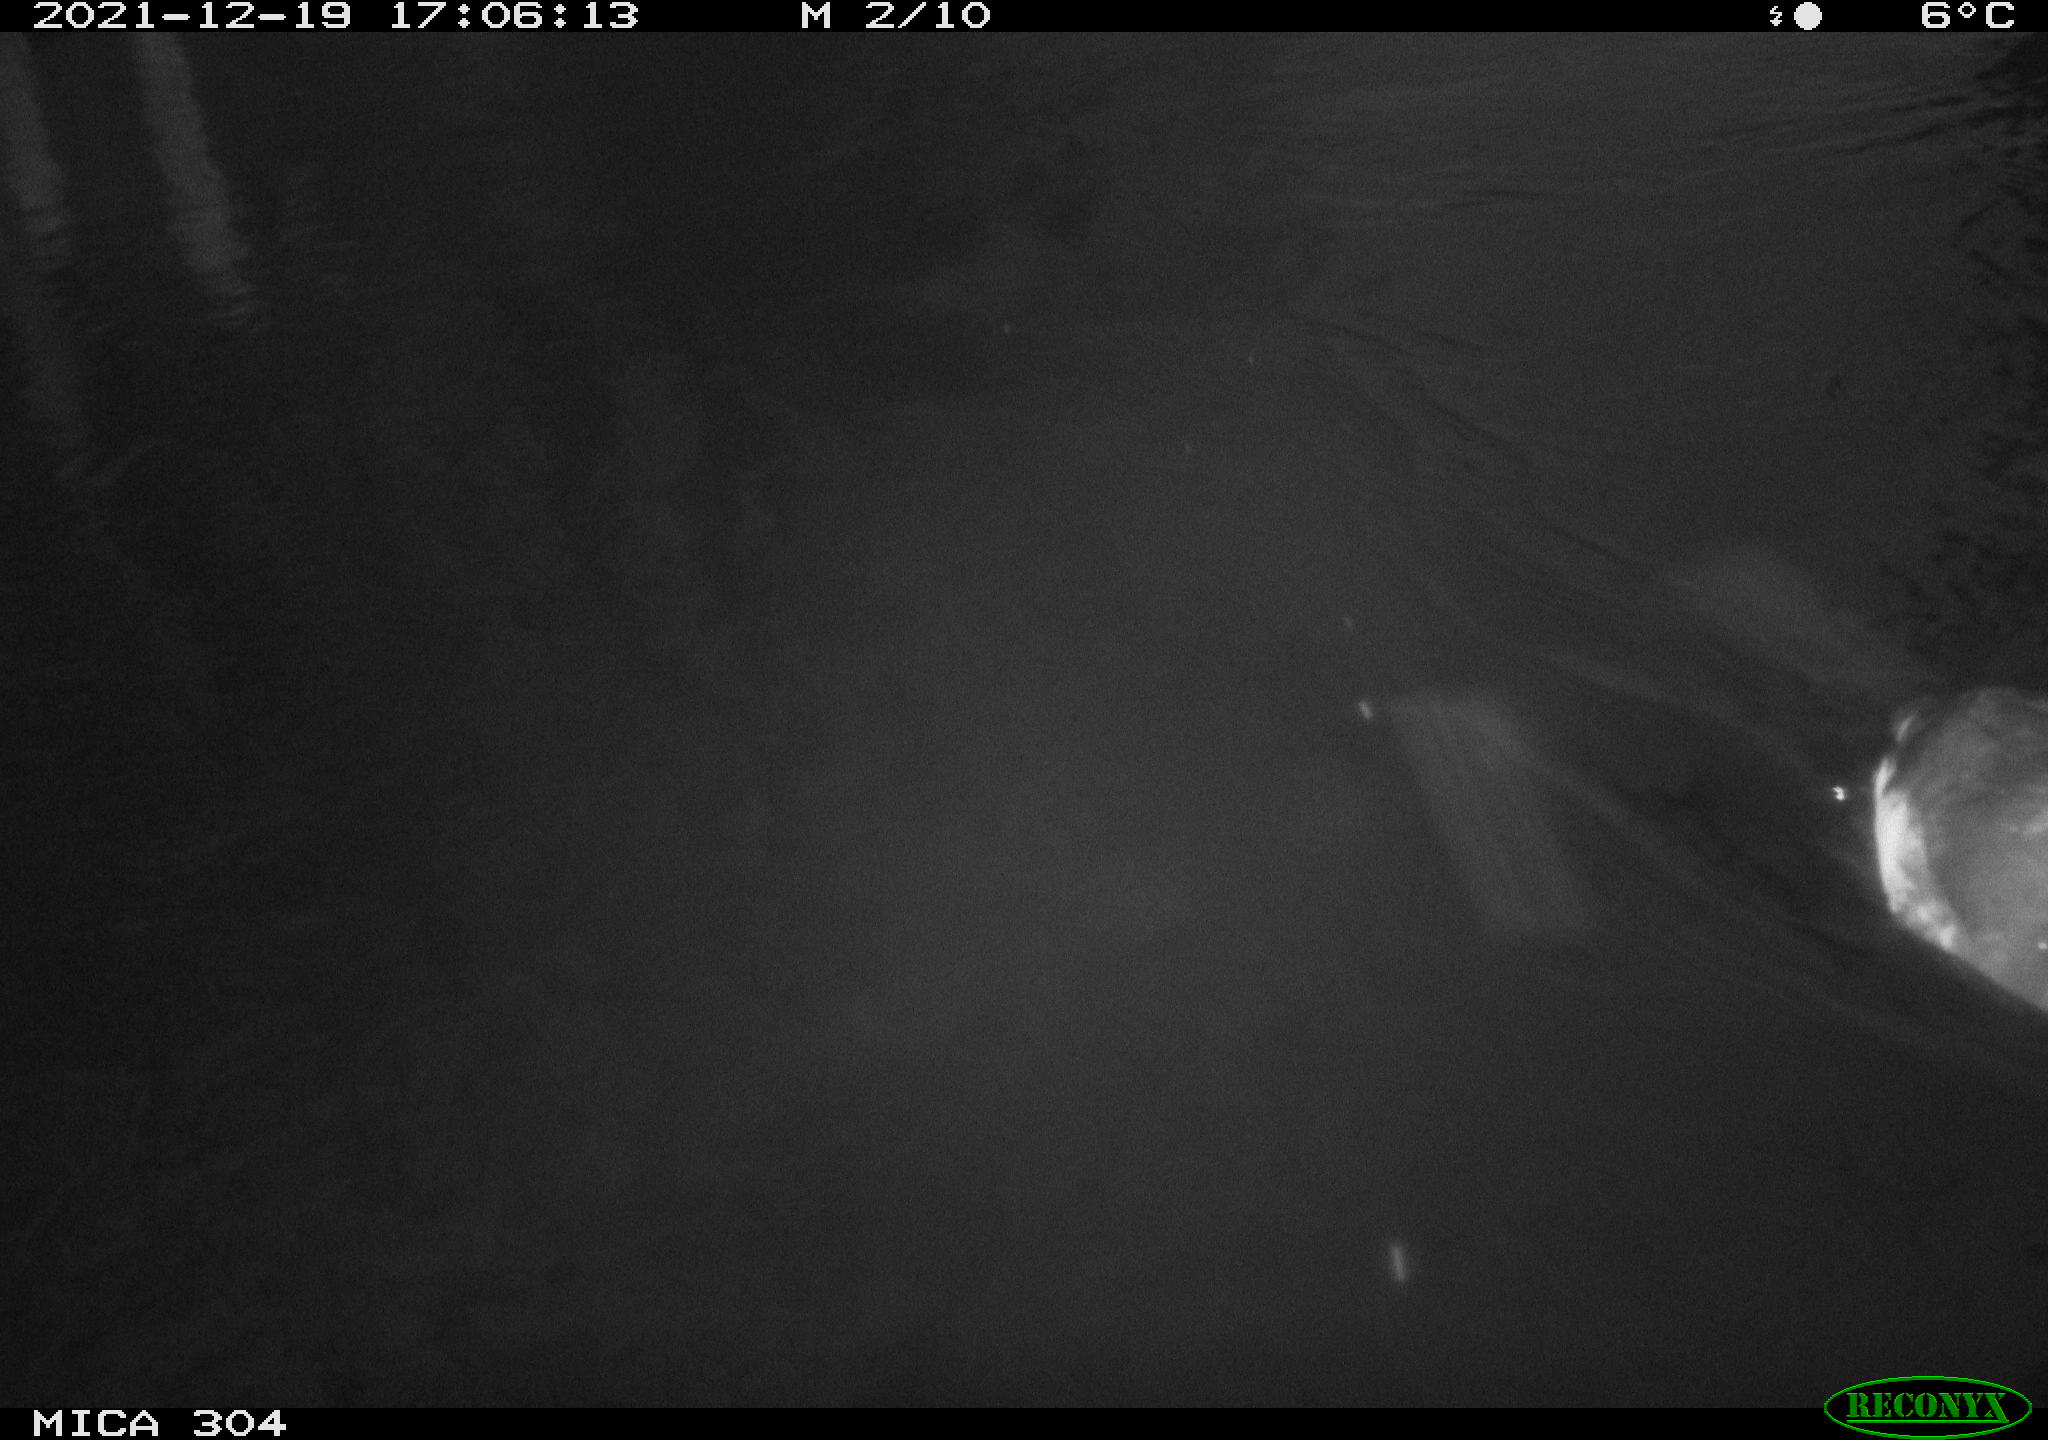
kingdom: Animalia
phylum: Chordata
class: Aves
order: Gruiformes
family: Rallidae
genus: Fulica
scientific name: Fulica atra
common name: Eurasian coot
